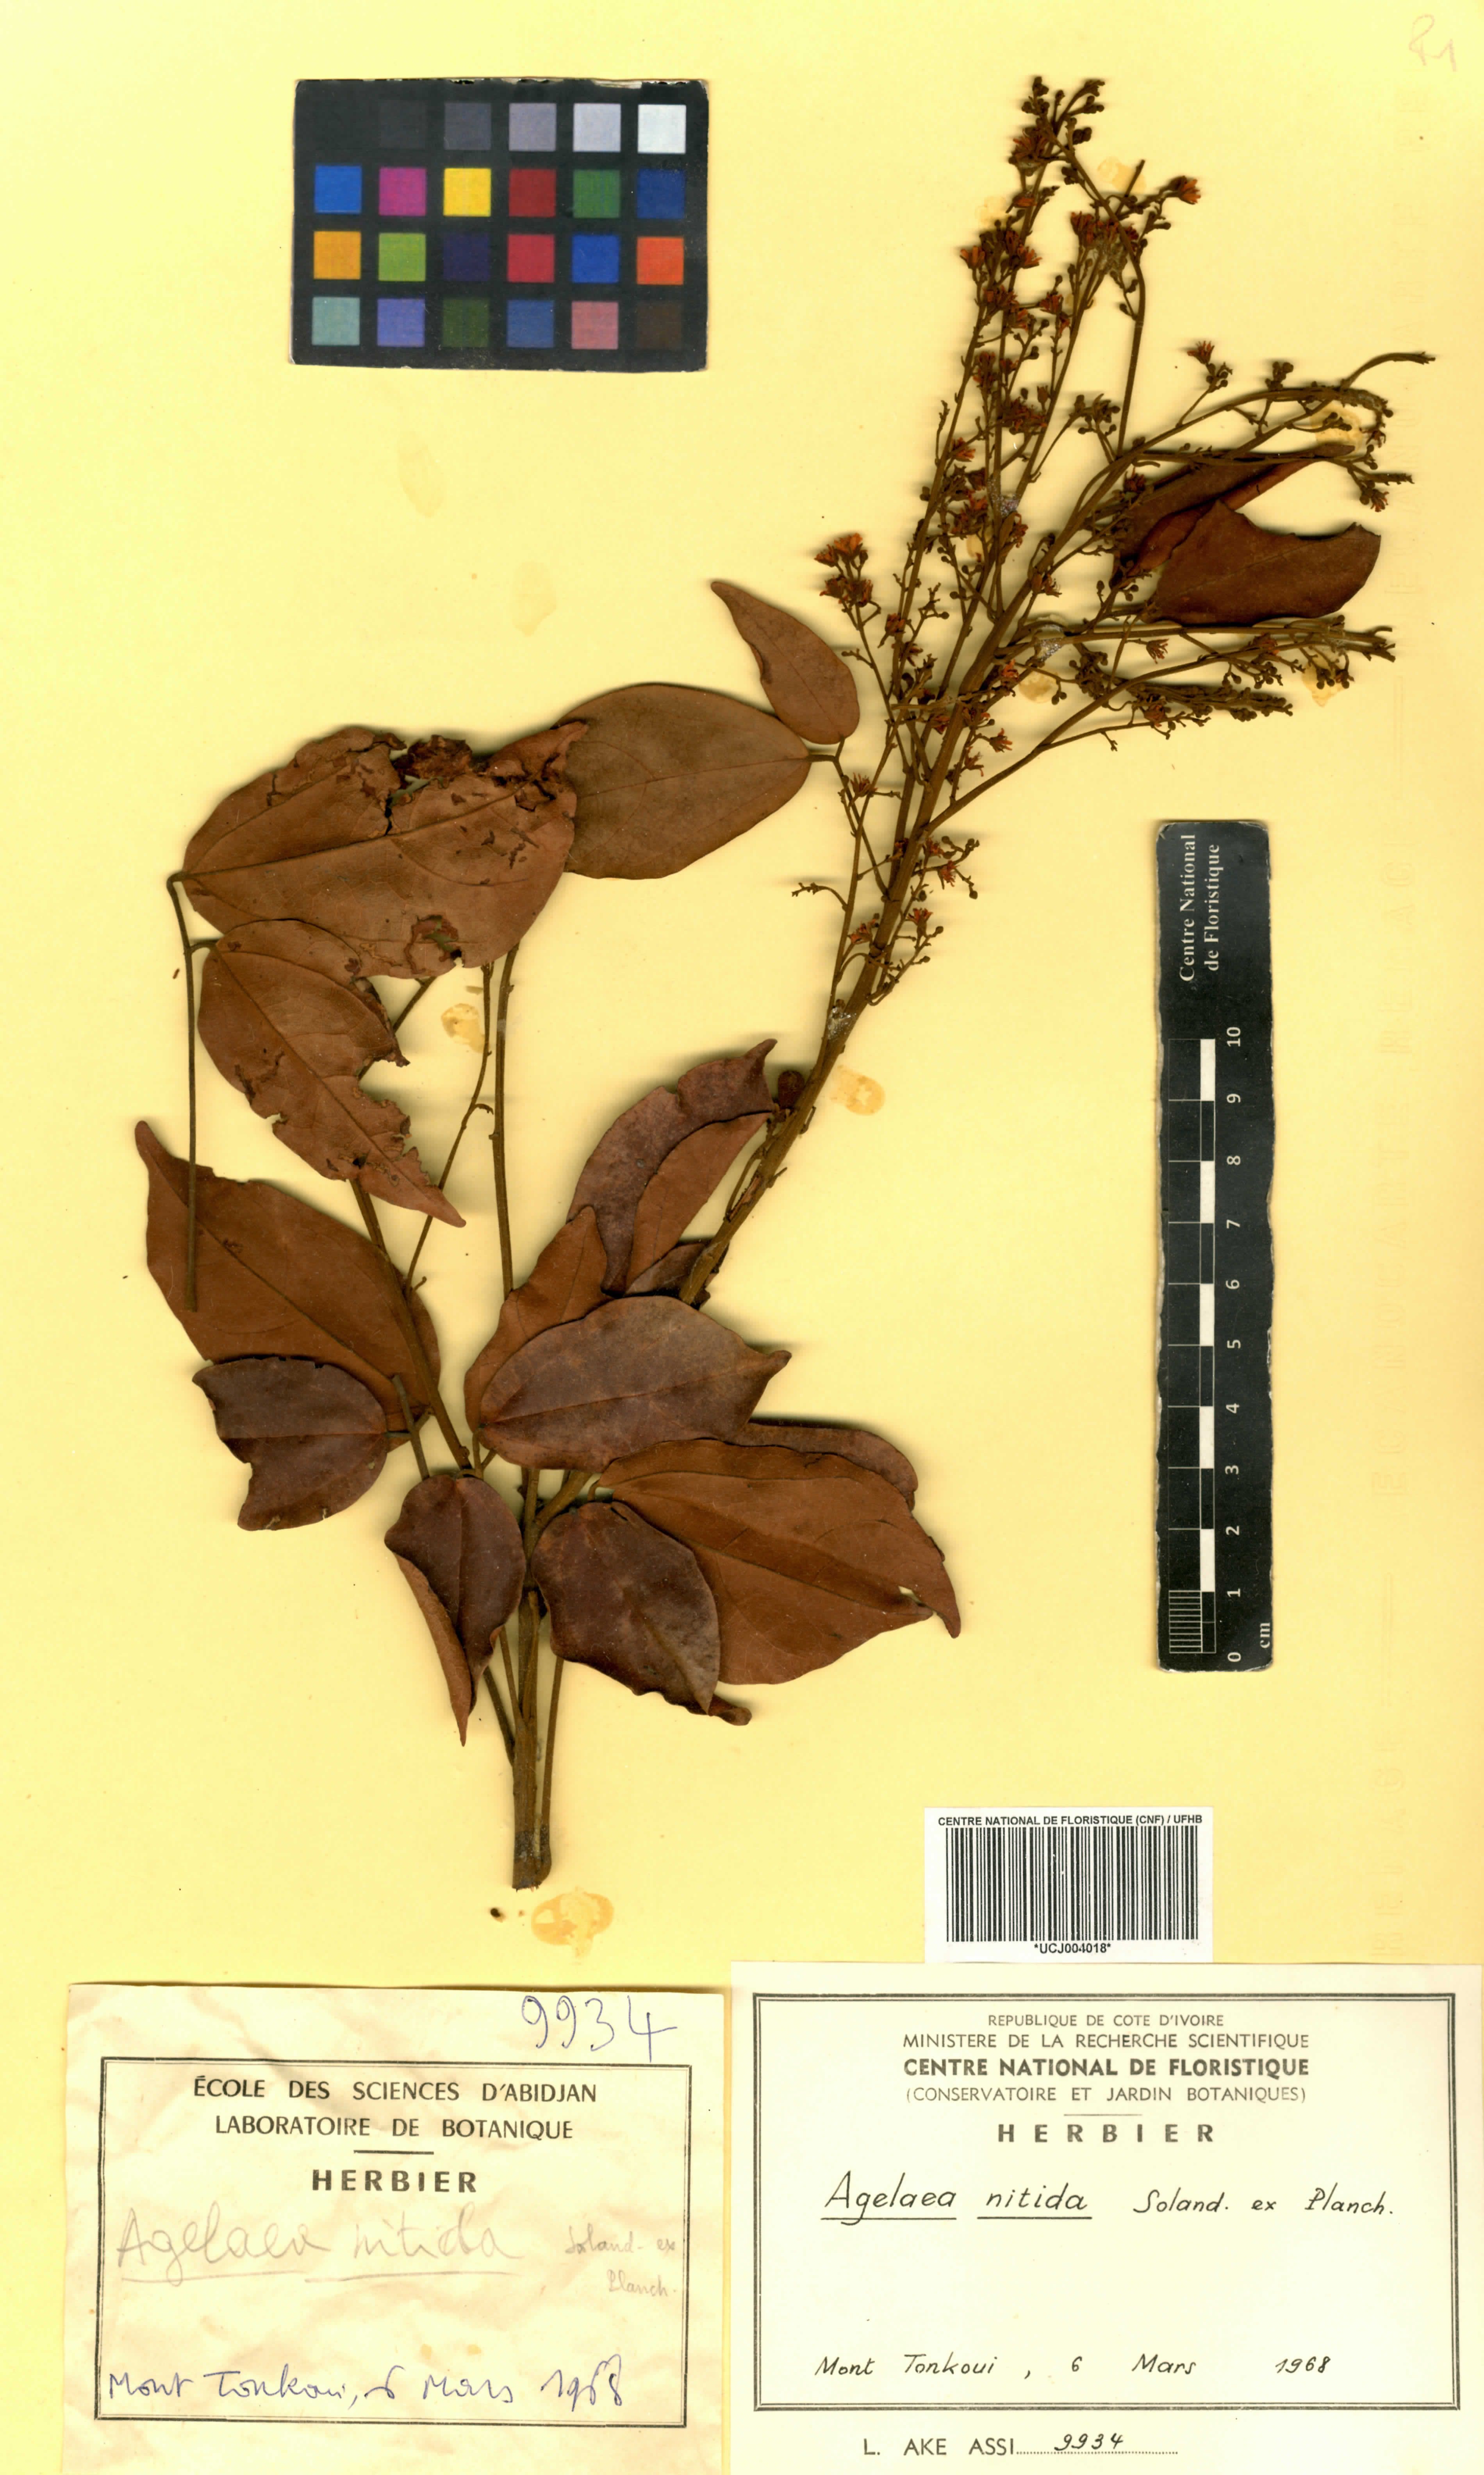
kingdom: Plantae
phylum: Tracheophyta
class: Magnoliopsida
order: Oxalidales
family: Connaraceae
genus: Agelaea
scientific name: Agelaea pentagyna
